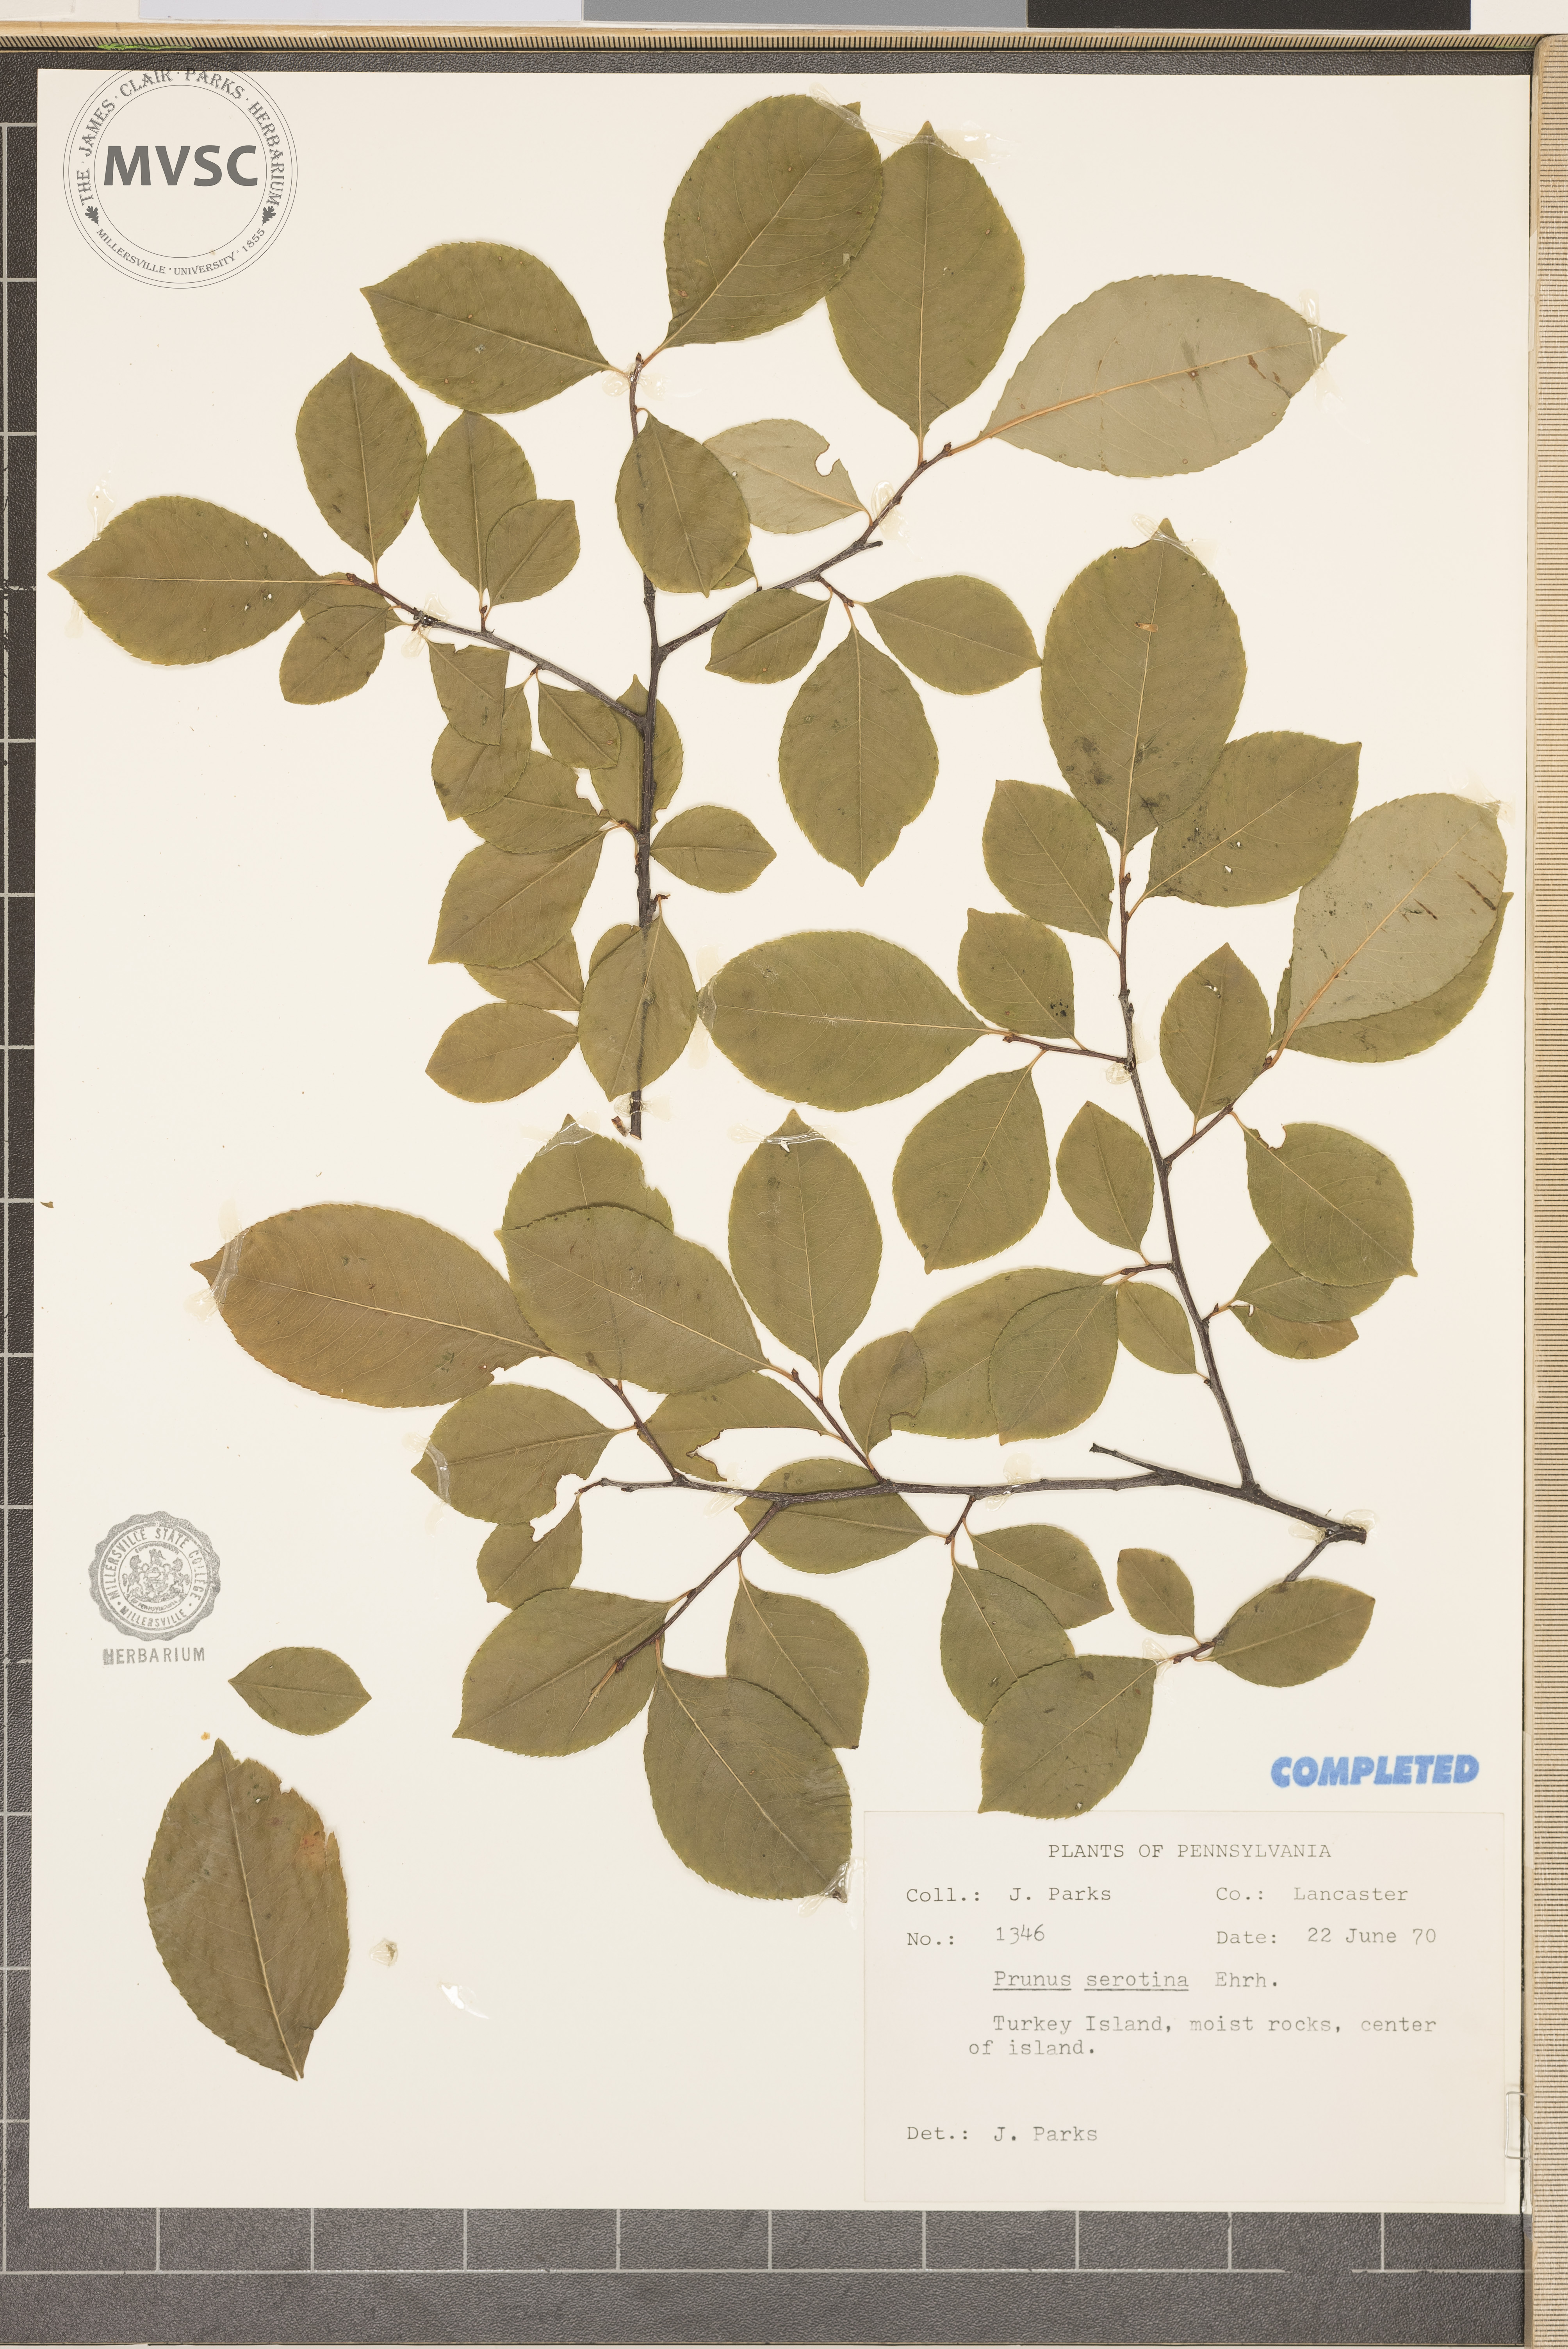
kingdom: Plantae
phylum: Tracheophyta
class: Magnoliopsida
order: Rosales
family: Rosaceae
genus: Prunus
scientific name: Prunus serotina
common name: wild black cherry
